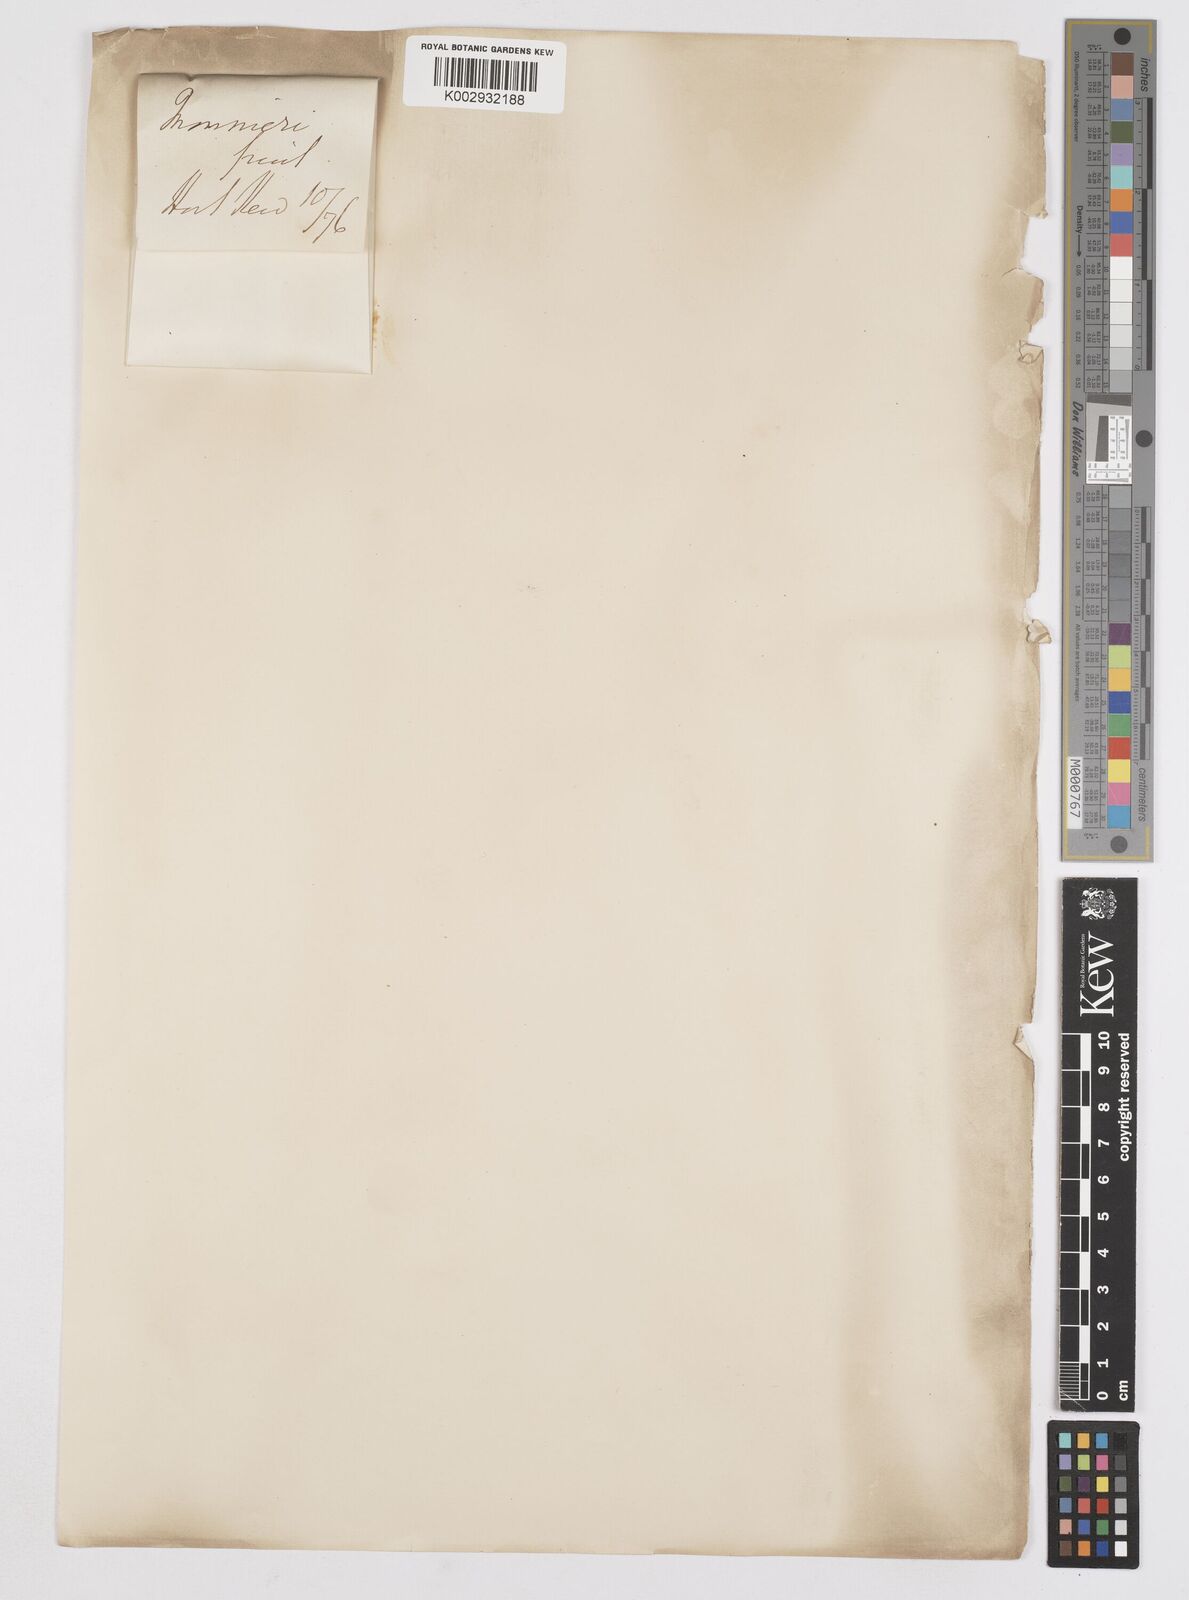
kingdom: Plantae
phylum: Tracheophyta
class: Liliopsida
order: Asparagales
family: Iridaceae
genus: Iris
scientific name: Iris orientalis
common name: Turkish iris
